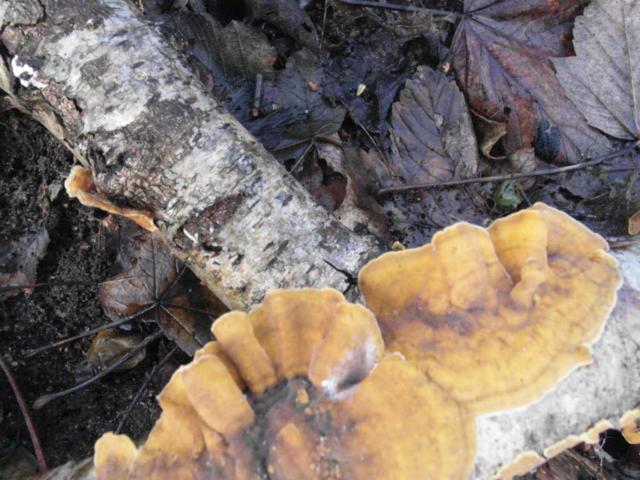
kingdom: Fungi
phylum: Basidiomycota
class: Agaricomycetes
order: Russulales
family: Stereaceae
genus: Stereum
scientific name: Stereum hirsutum
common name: håret lædersvamp
